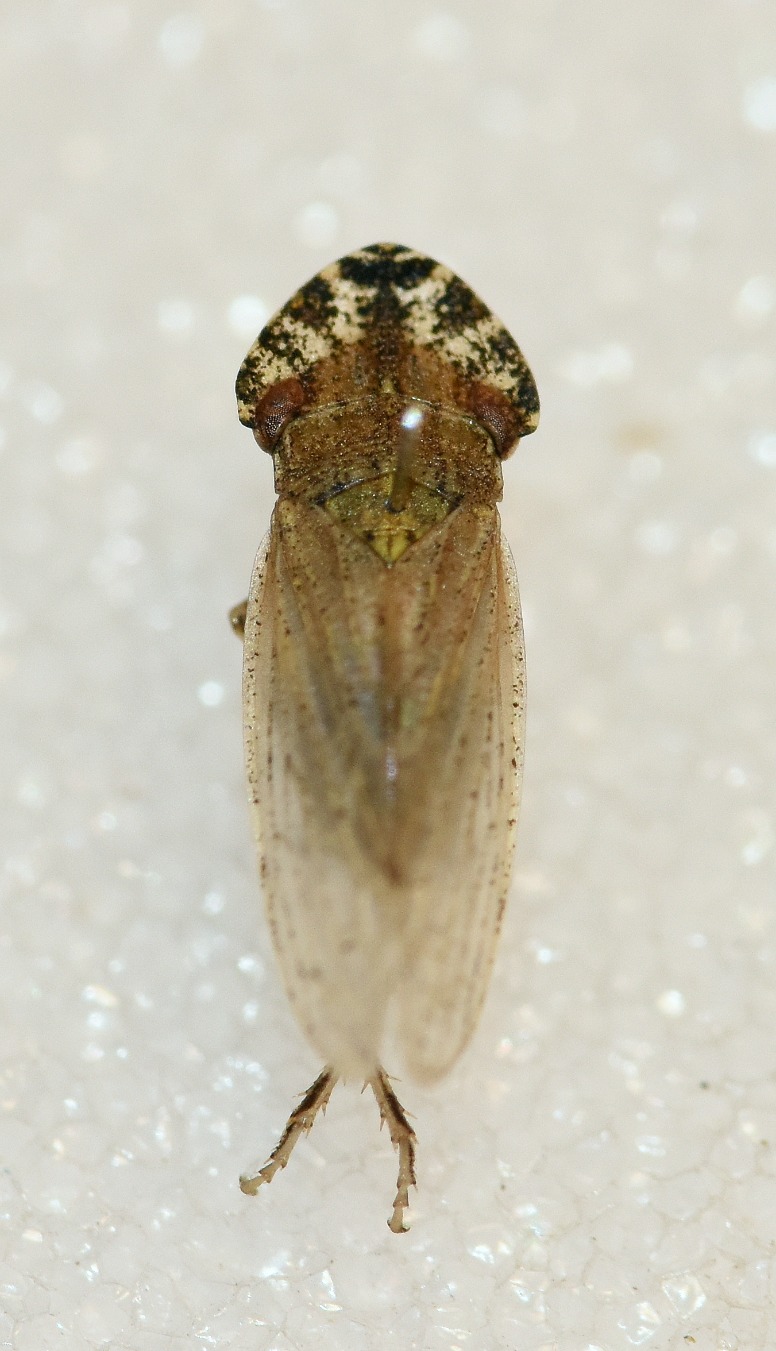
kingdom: Animalia
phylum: Arthropoda
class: Insecta
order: Hemiptera
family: Cicadellidae
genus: Eupelix
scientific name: Eupelix cuspidata
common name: Fladhovedcikade
